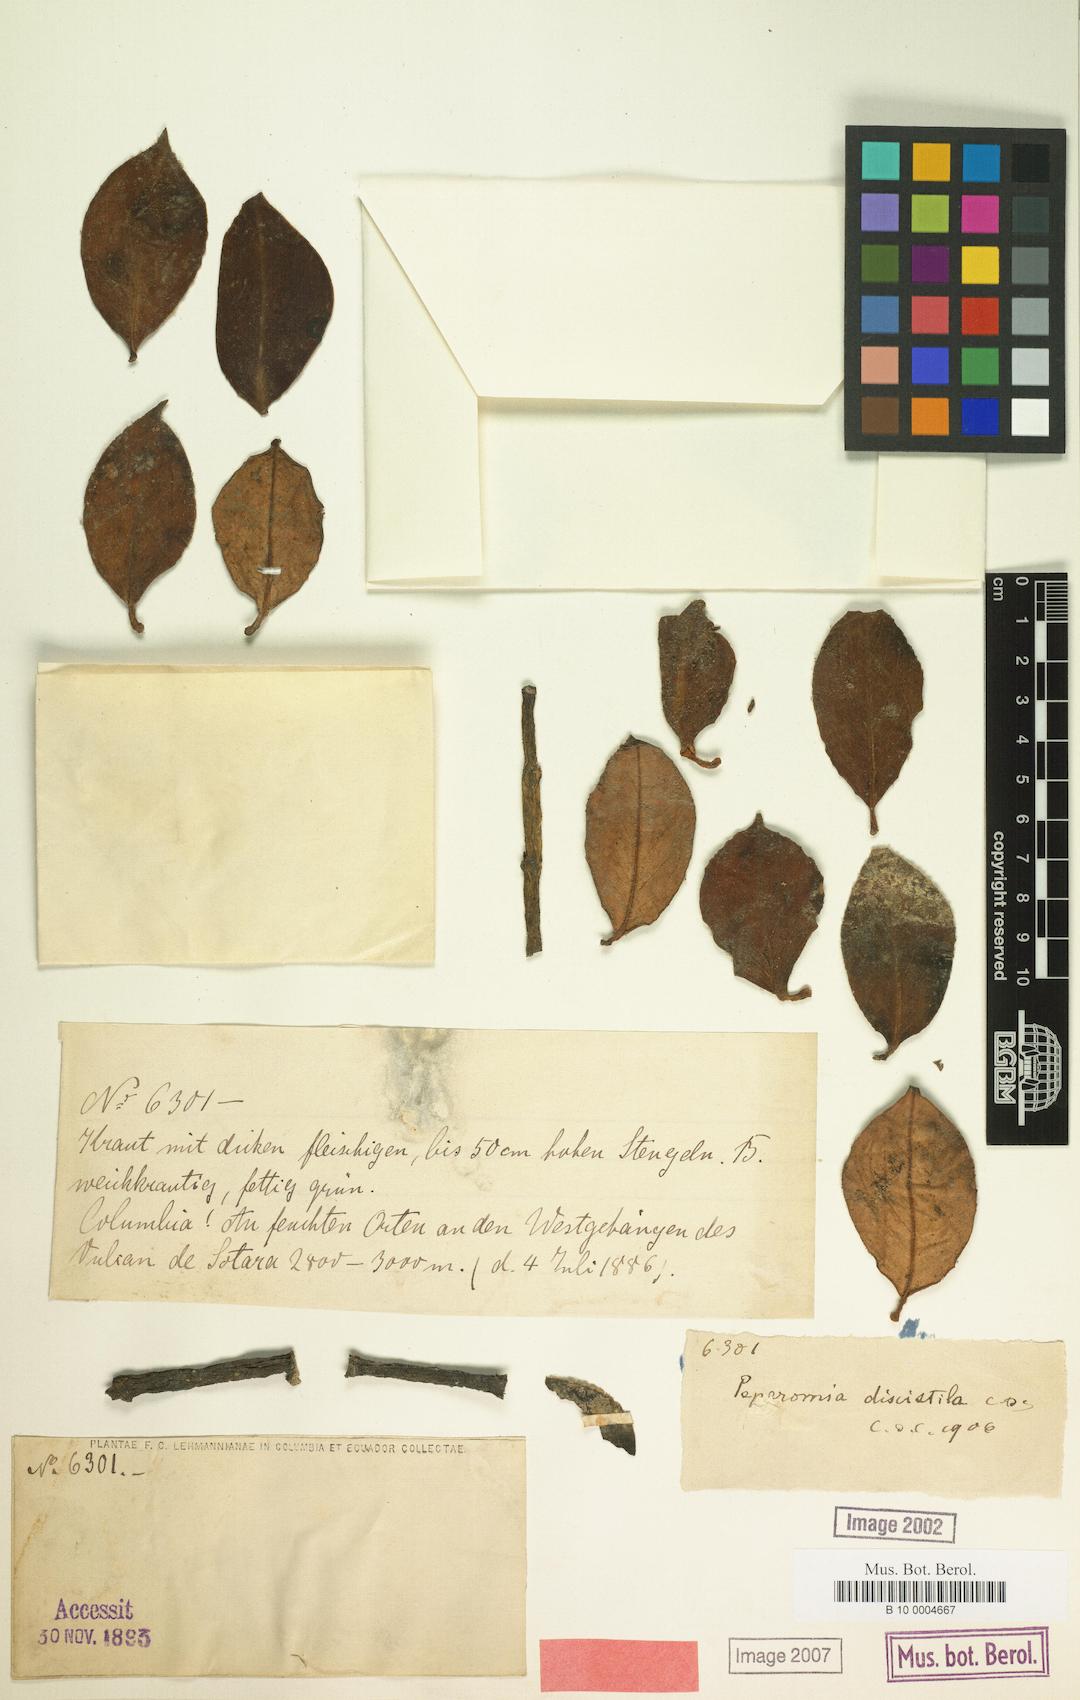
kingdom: Plantae
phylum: Tracheophyta
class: Magnoliopsida
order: Piperales
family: Piperaceae
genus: Peperomia
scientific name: Peperomia trianae
